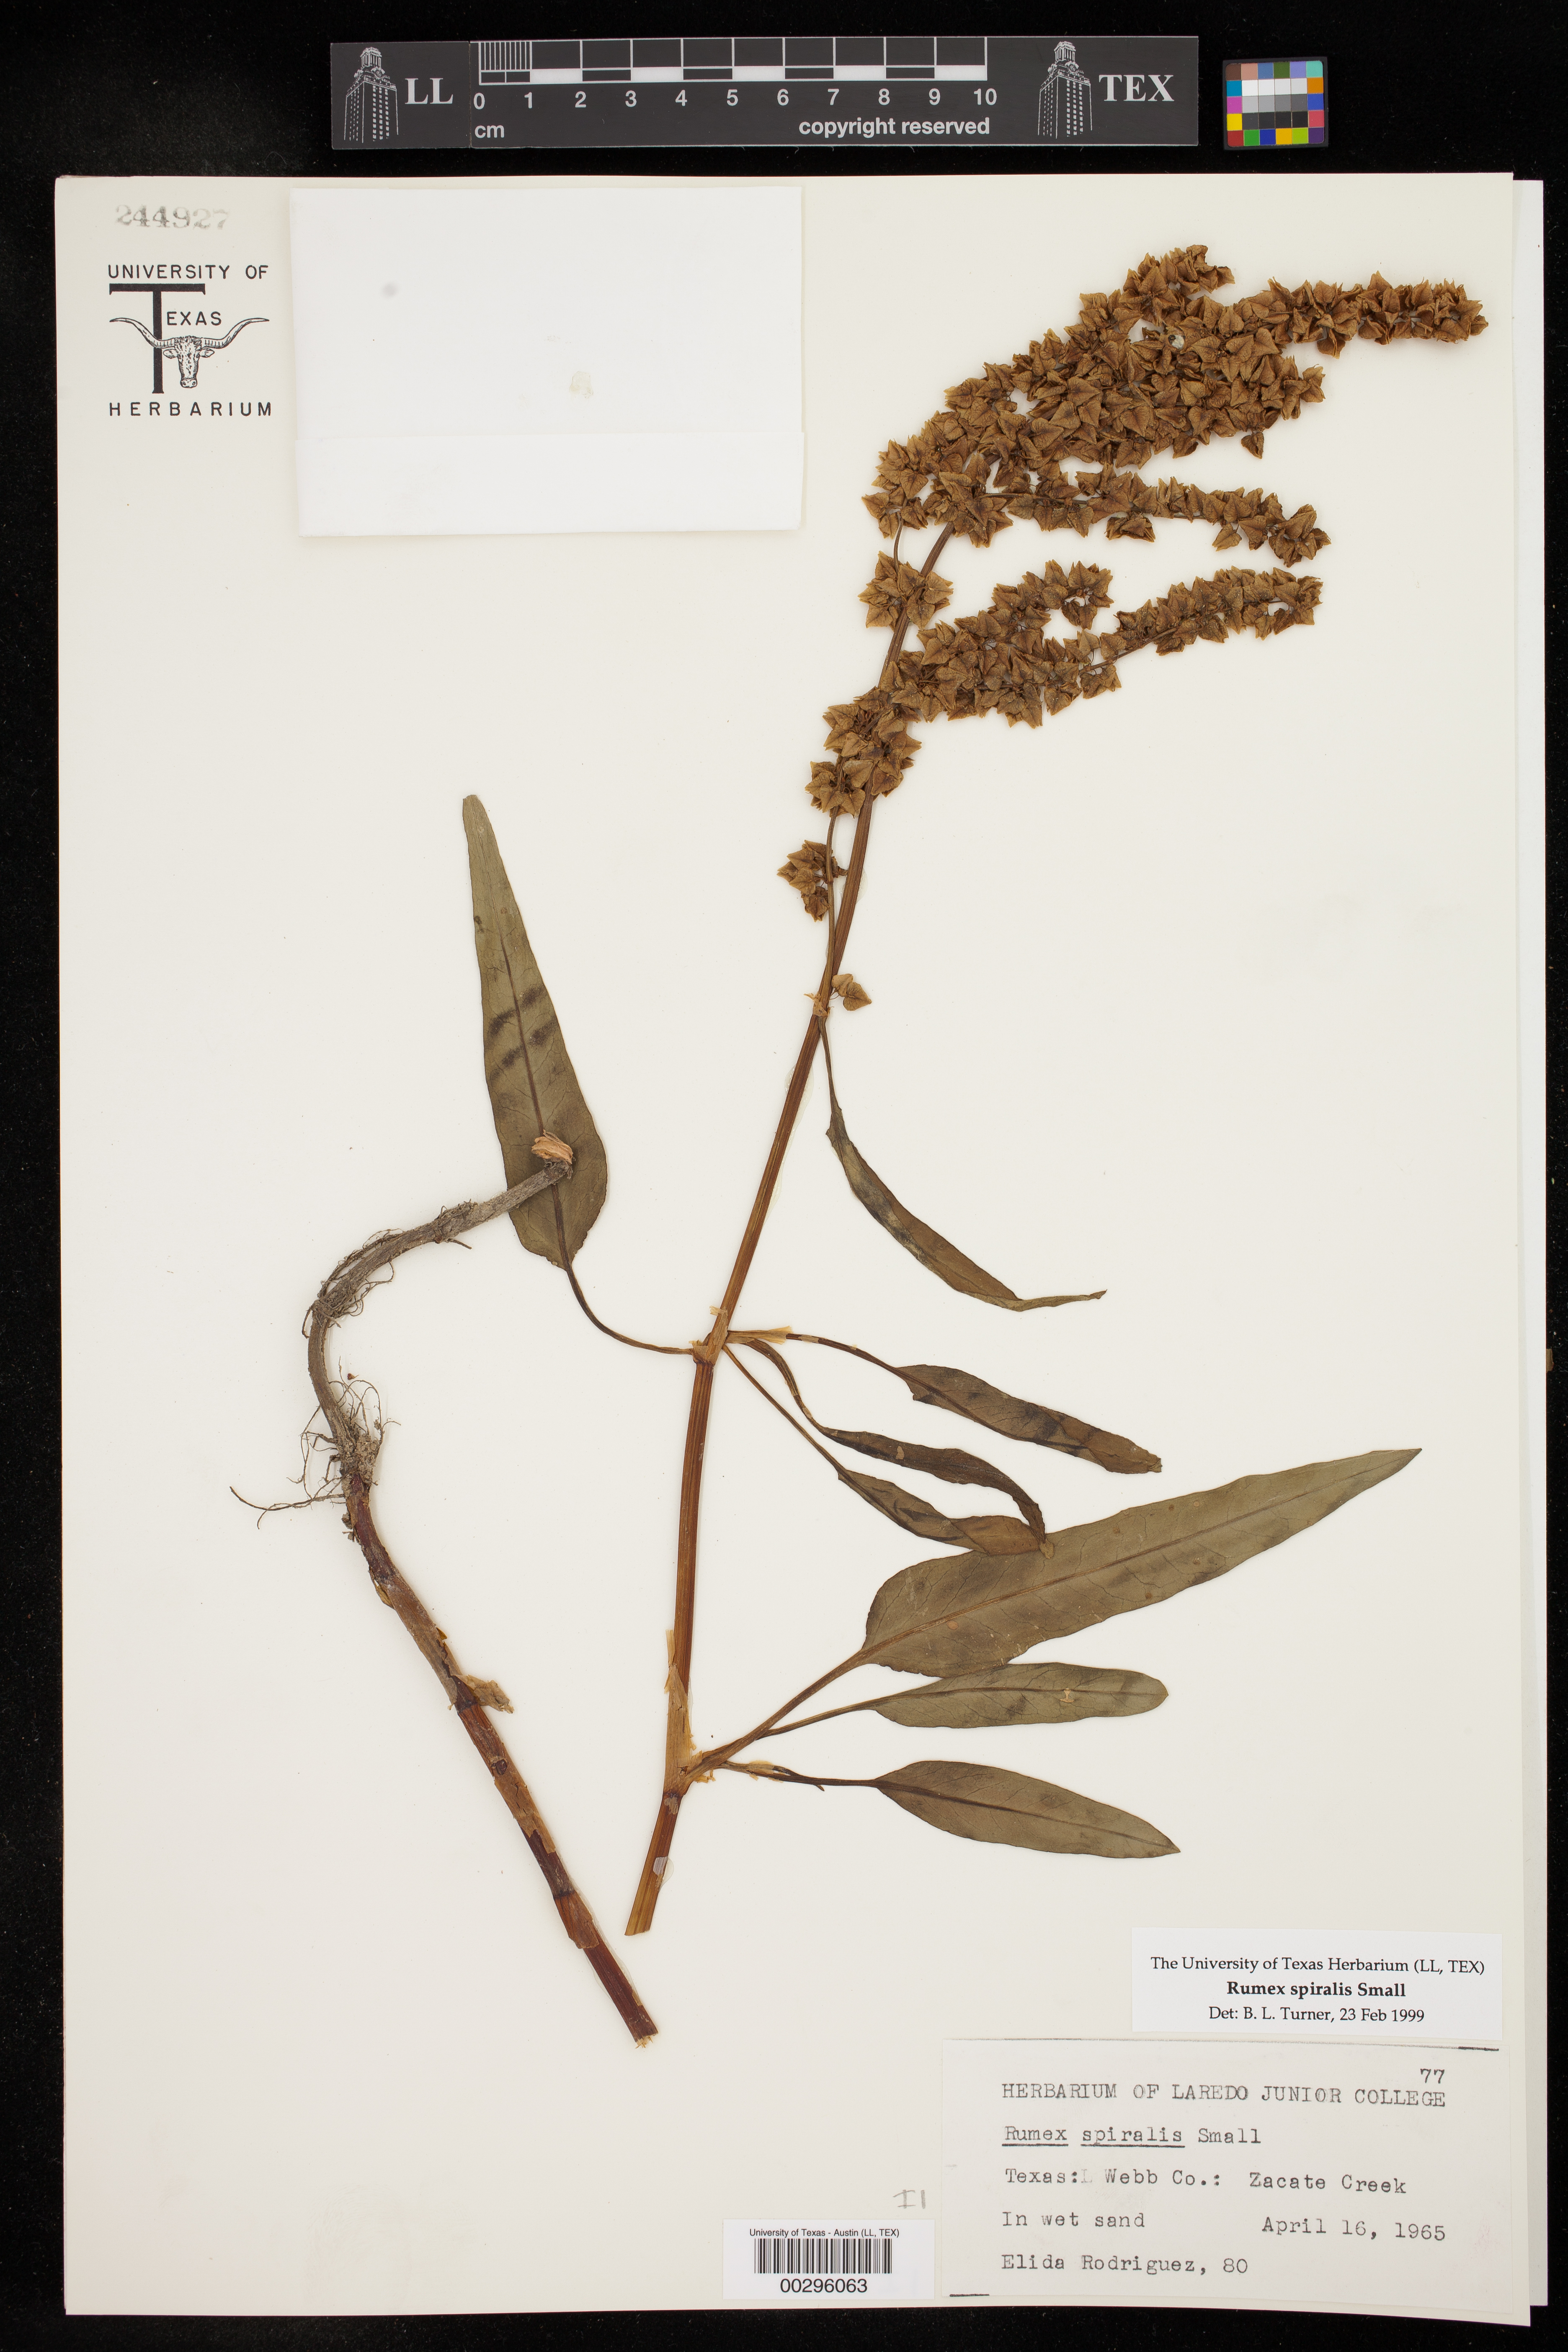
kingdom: Plantae
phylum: Tracheophyta
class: Magnoliopsida
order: Caryophyllales
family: Polygonaceae
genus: Rumex
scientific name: Rumex spiralis
